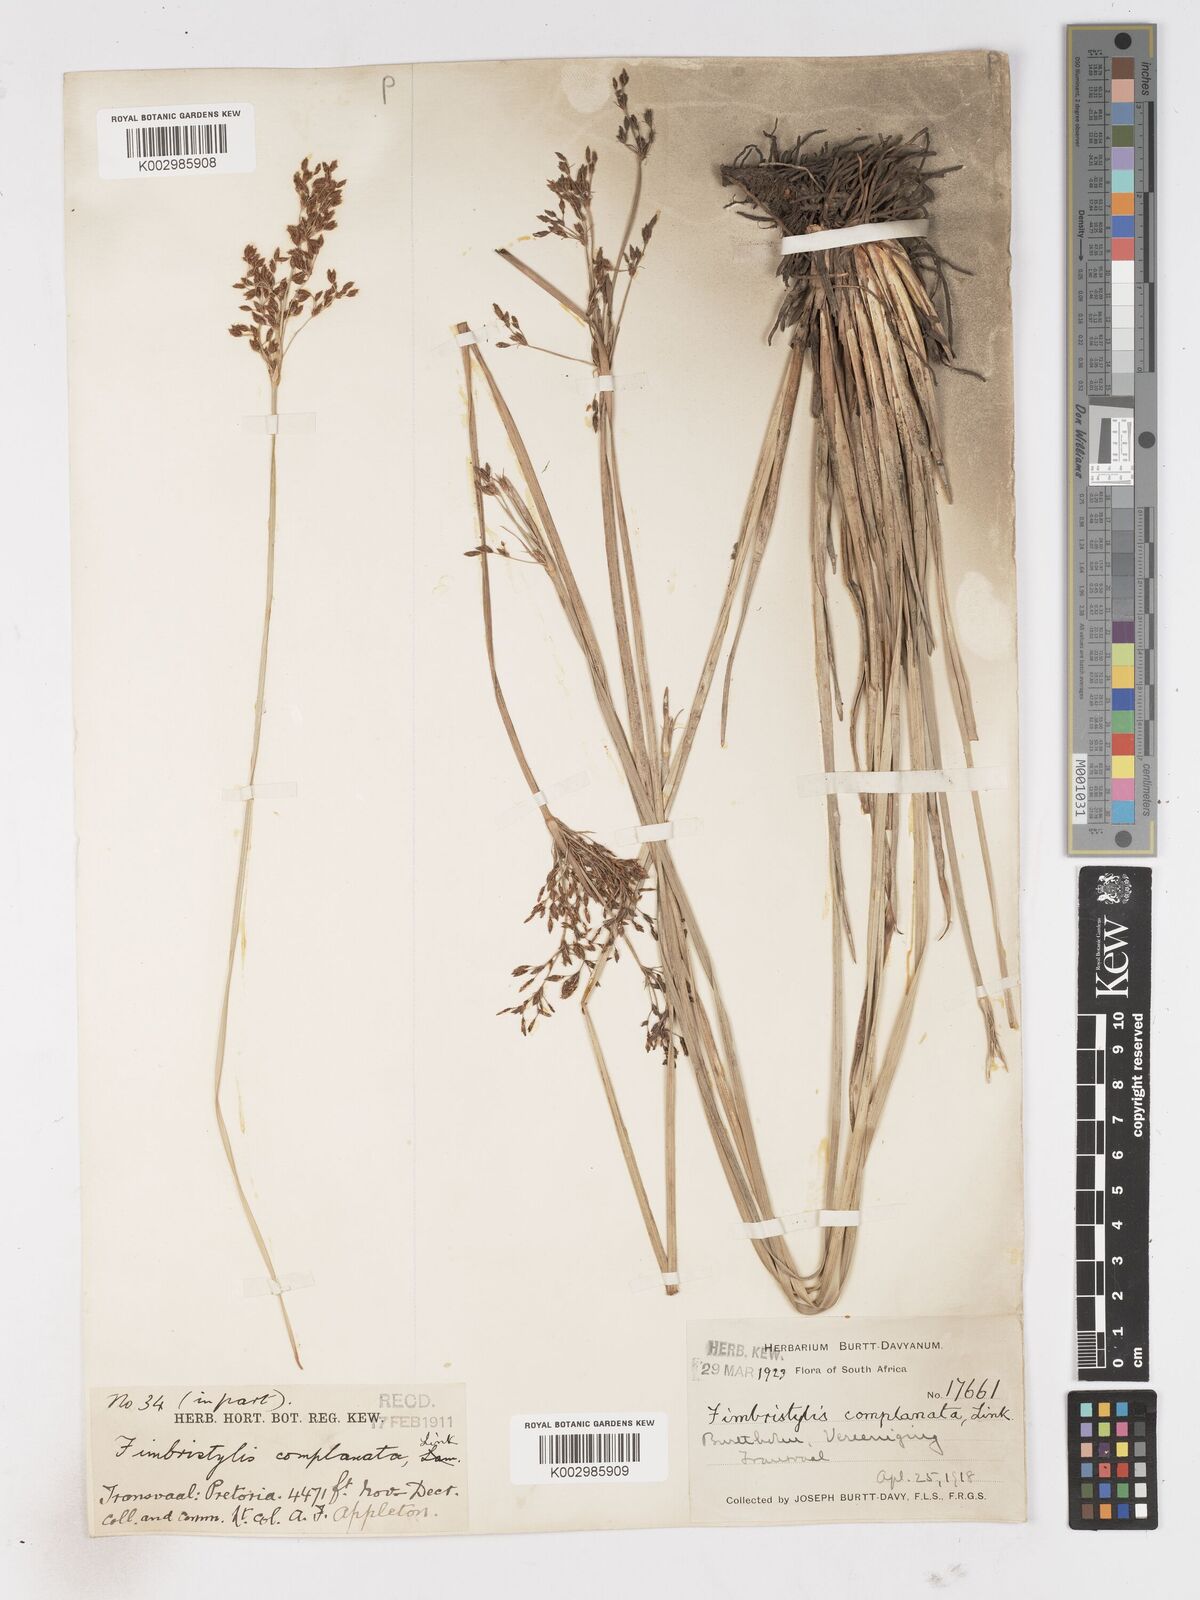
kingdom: Plantae
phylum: Tracheophyta
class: Liliopsida
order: Poales
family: Cyperaceae
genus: Fimbristylis
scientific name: Fimbristylis complanata
